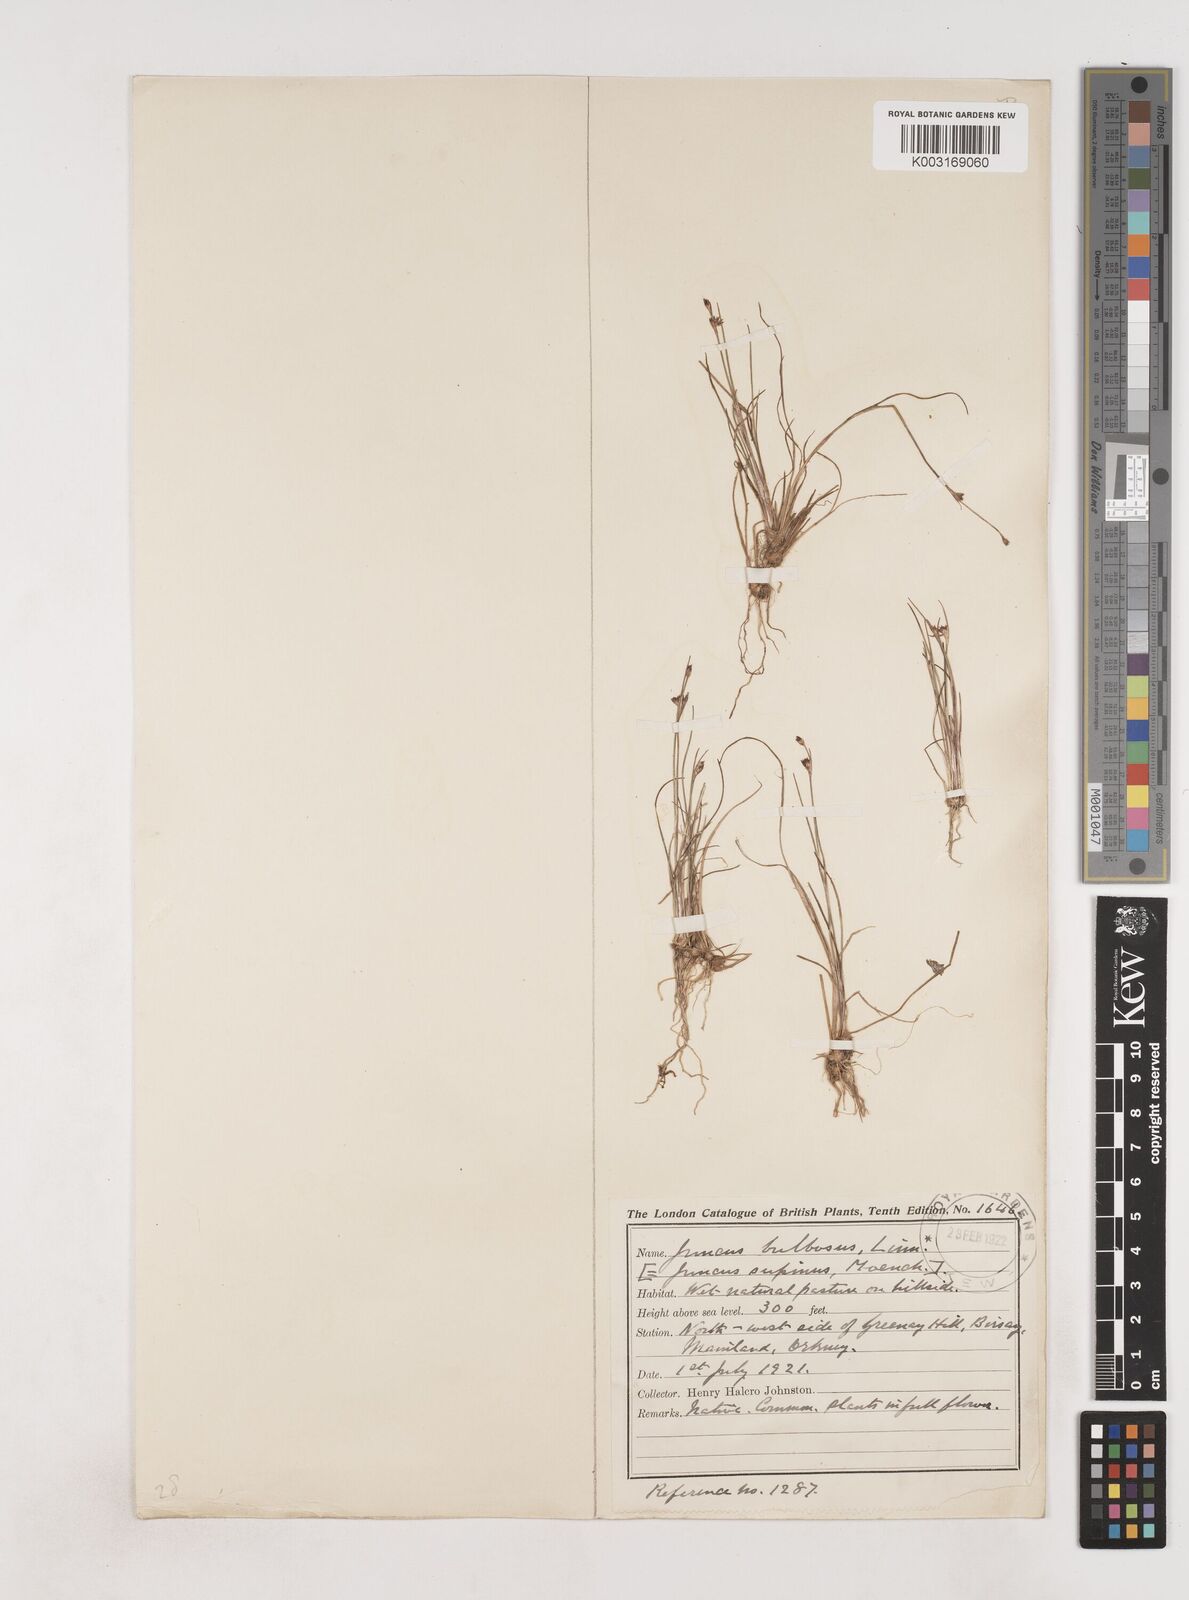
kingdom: Plantae
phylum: Tracheophyta
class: Liliopsida
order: Poales
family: Juncaceae
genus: Juncus
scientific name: Juncus bulbosus
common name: Bulbous rush
